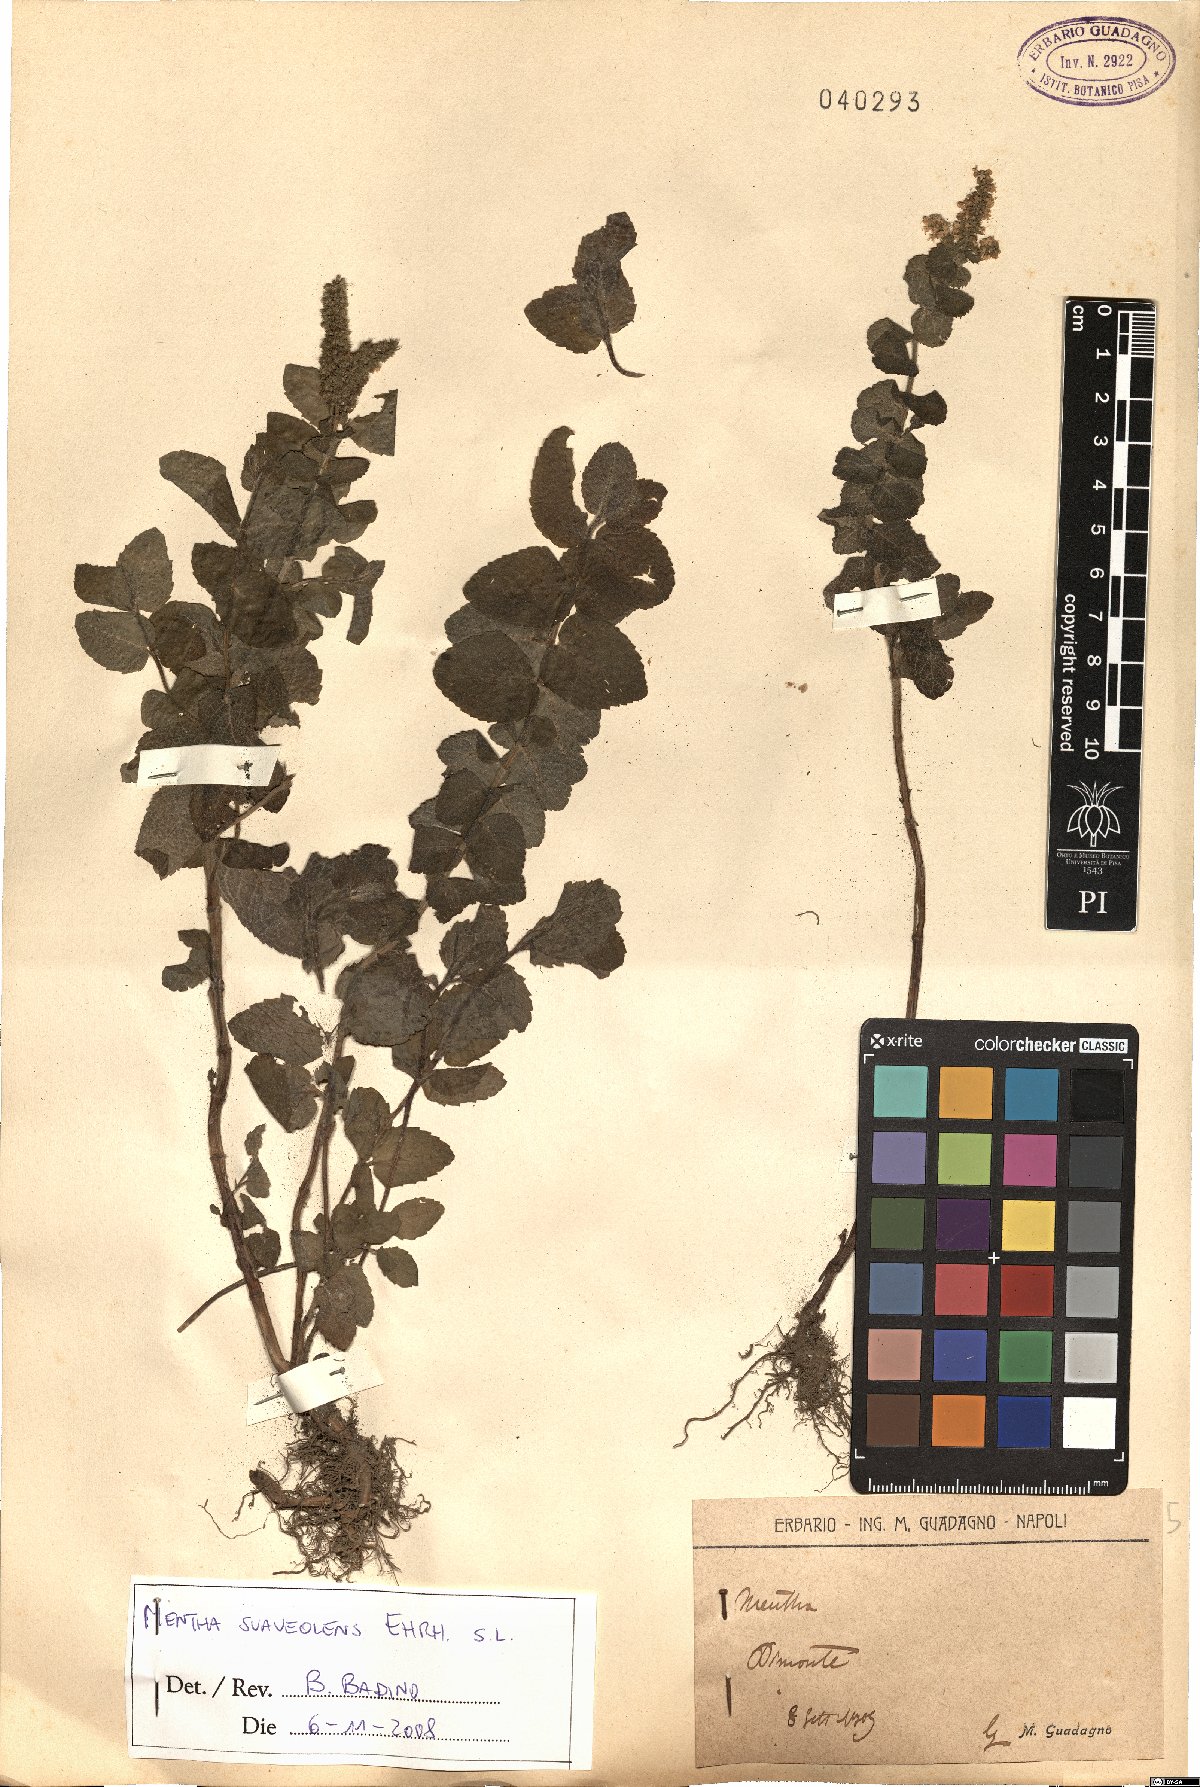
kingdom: Plantae
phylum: Tracheophyta
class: Magnoliopsida
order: Lamiales
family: Lamiaceae
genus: Mentha
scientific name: Mentha suaveolens
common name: Apple mint
